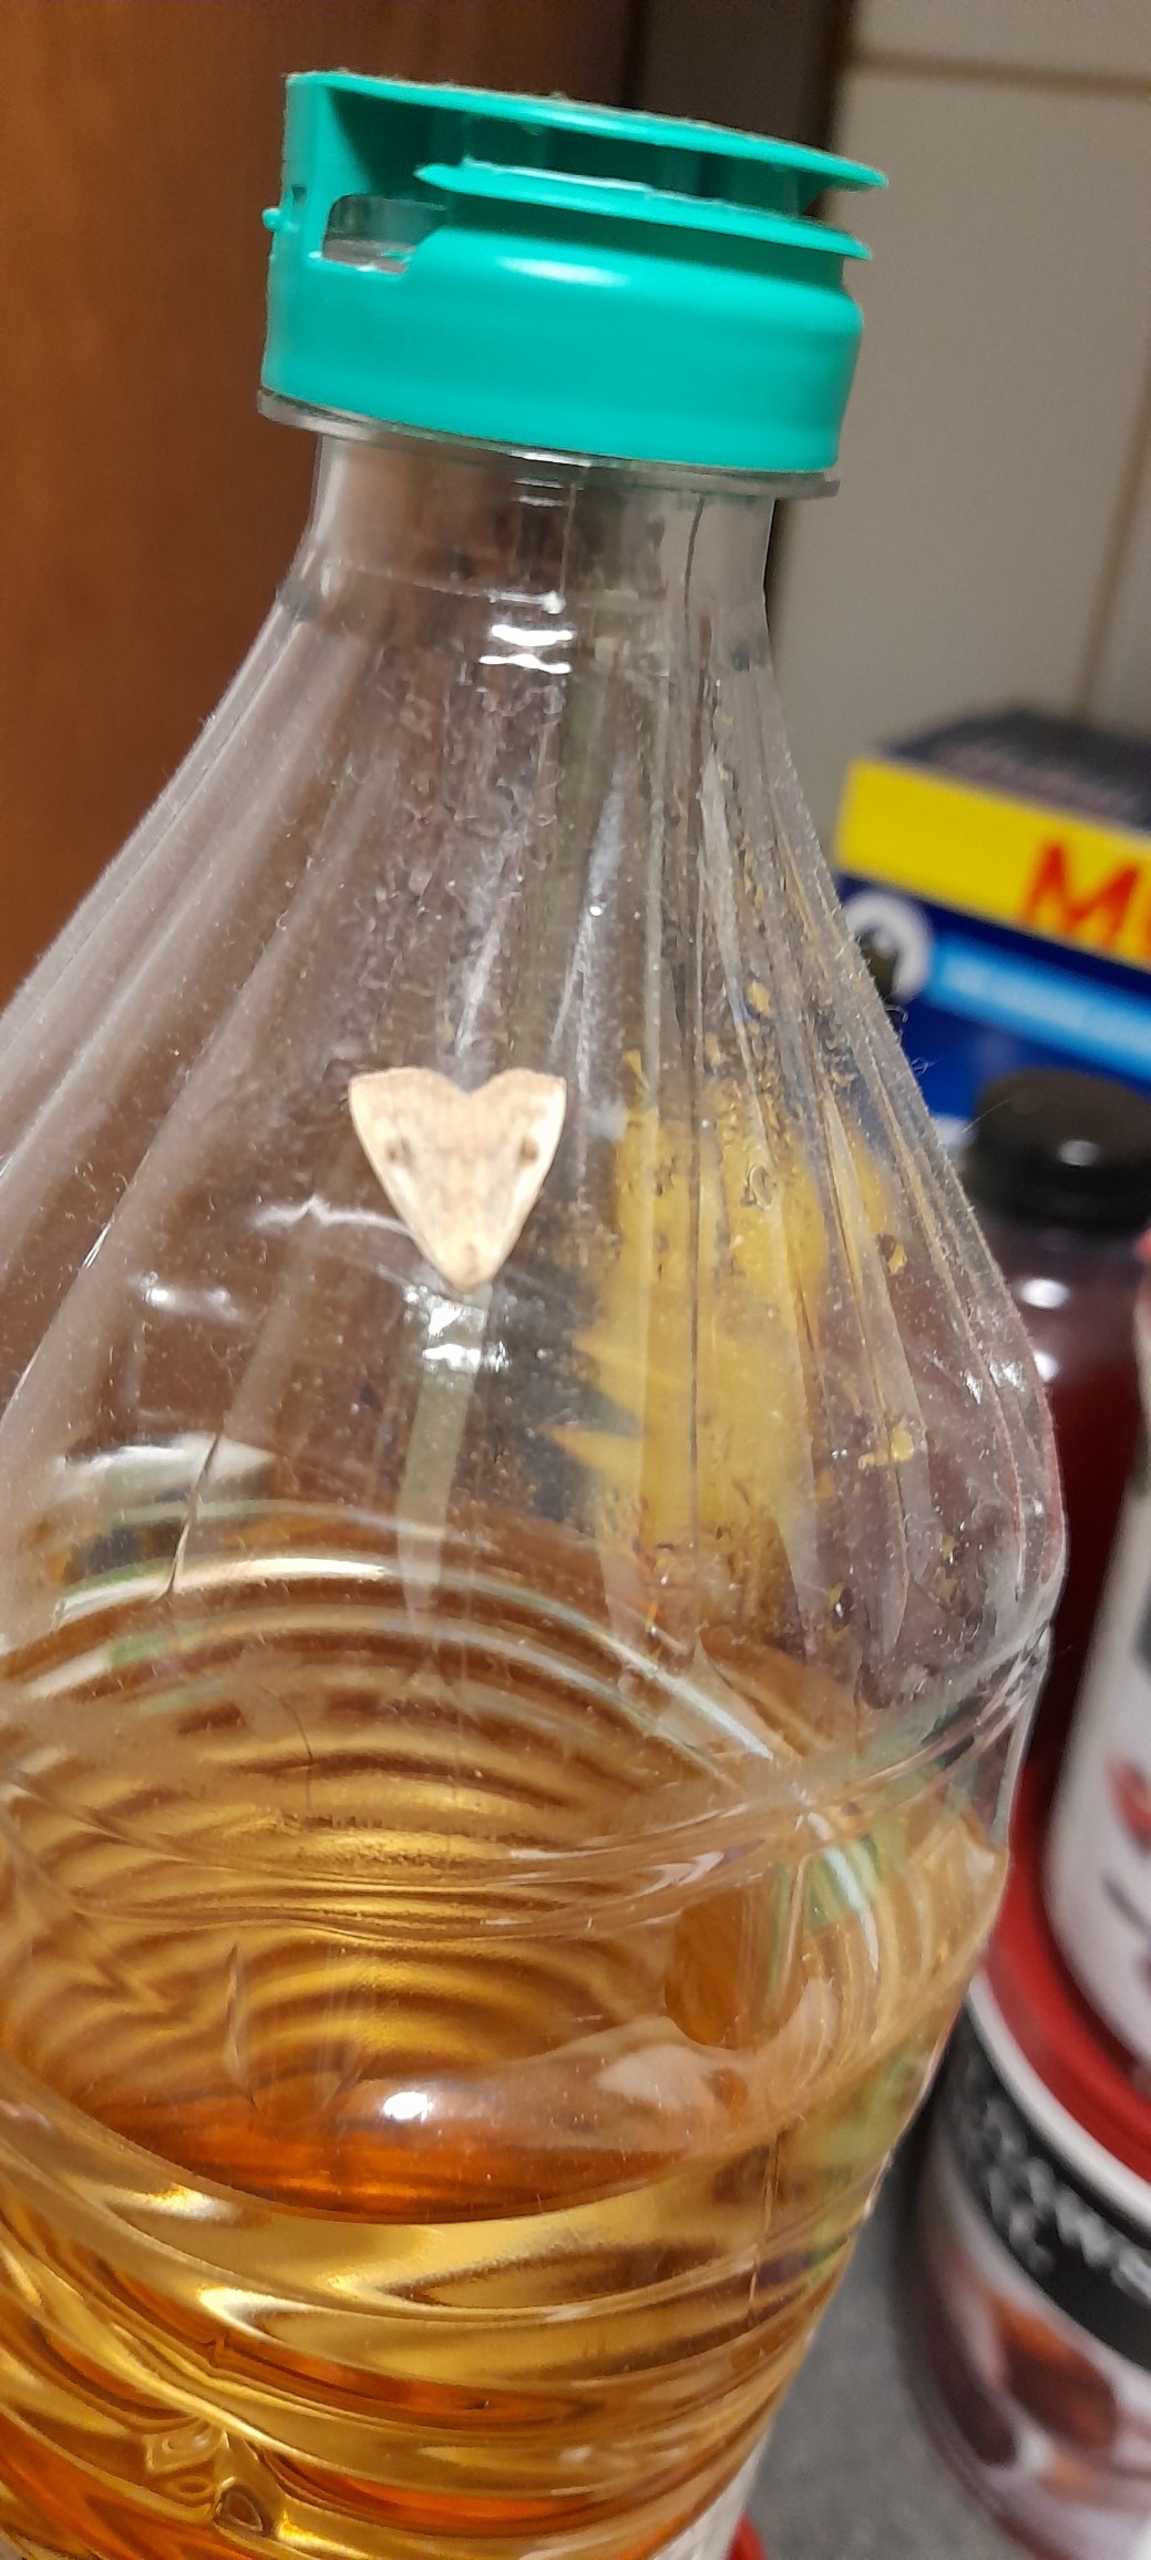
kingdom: Animalia
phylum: Arthropoda
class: Insecta
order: Lepidoptera
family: Erebidae
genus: Rivula
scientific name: Rivula sericealis
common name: Lille å-ugle
